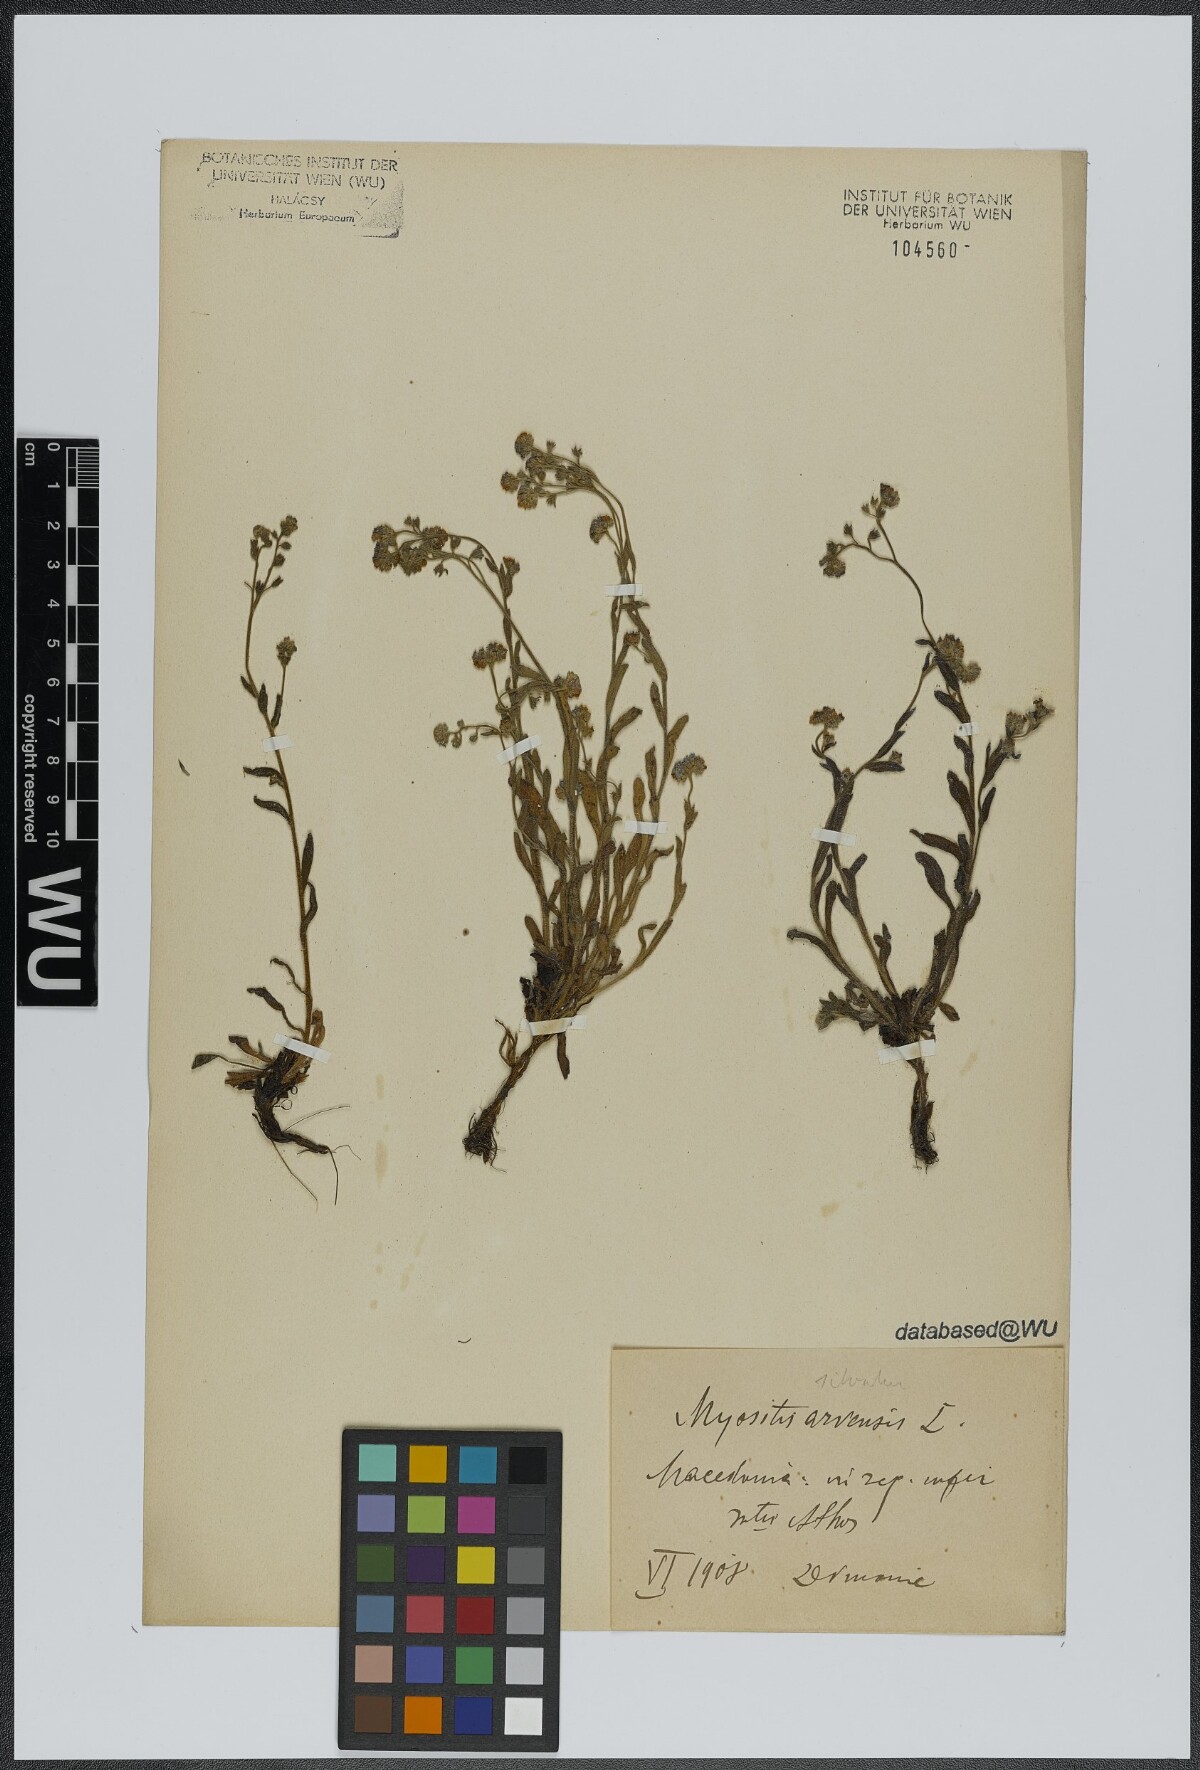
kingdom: Plantae
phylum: Tracheophyta
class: Magnoliopsida
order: Boraginales
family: Boraginaceae
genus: Myosotis
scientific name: Myosotis sylvatica
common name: Wood forget-me-not
